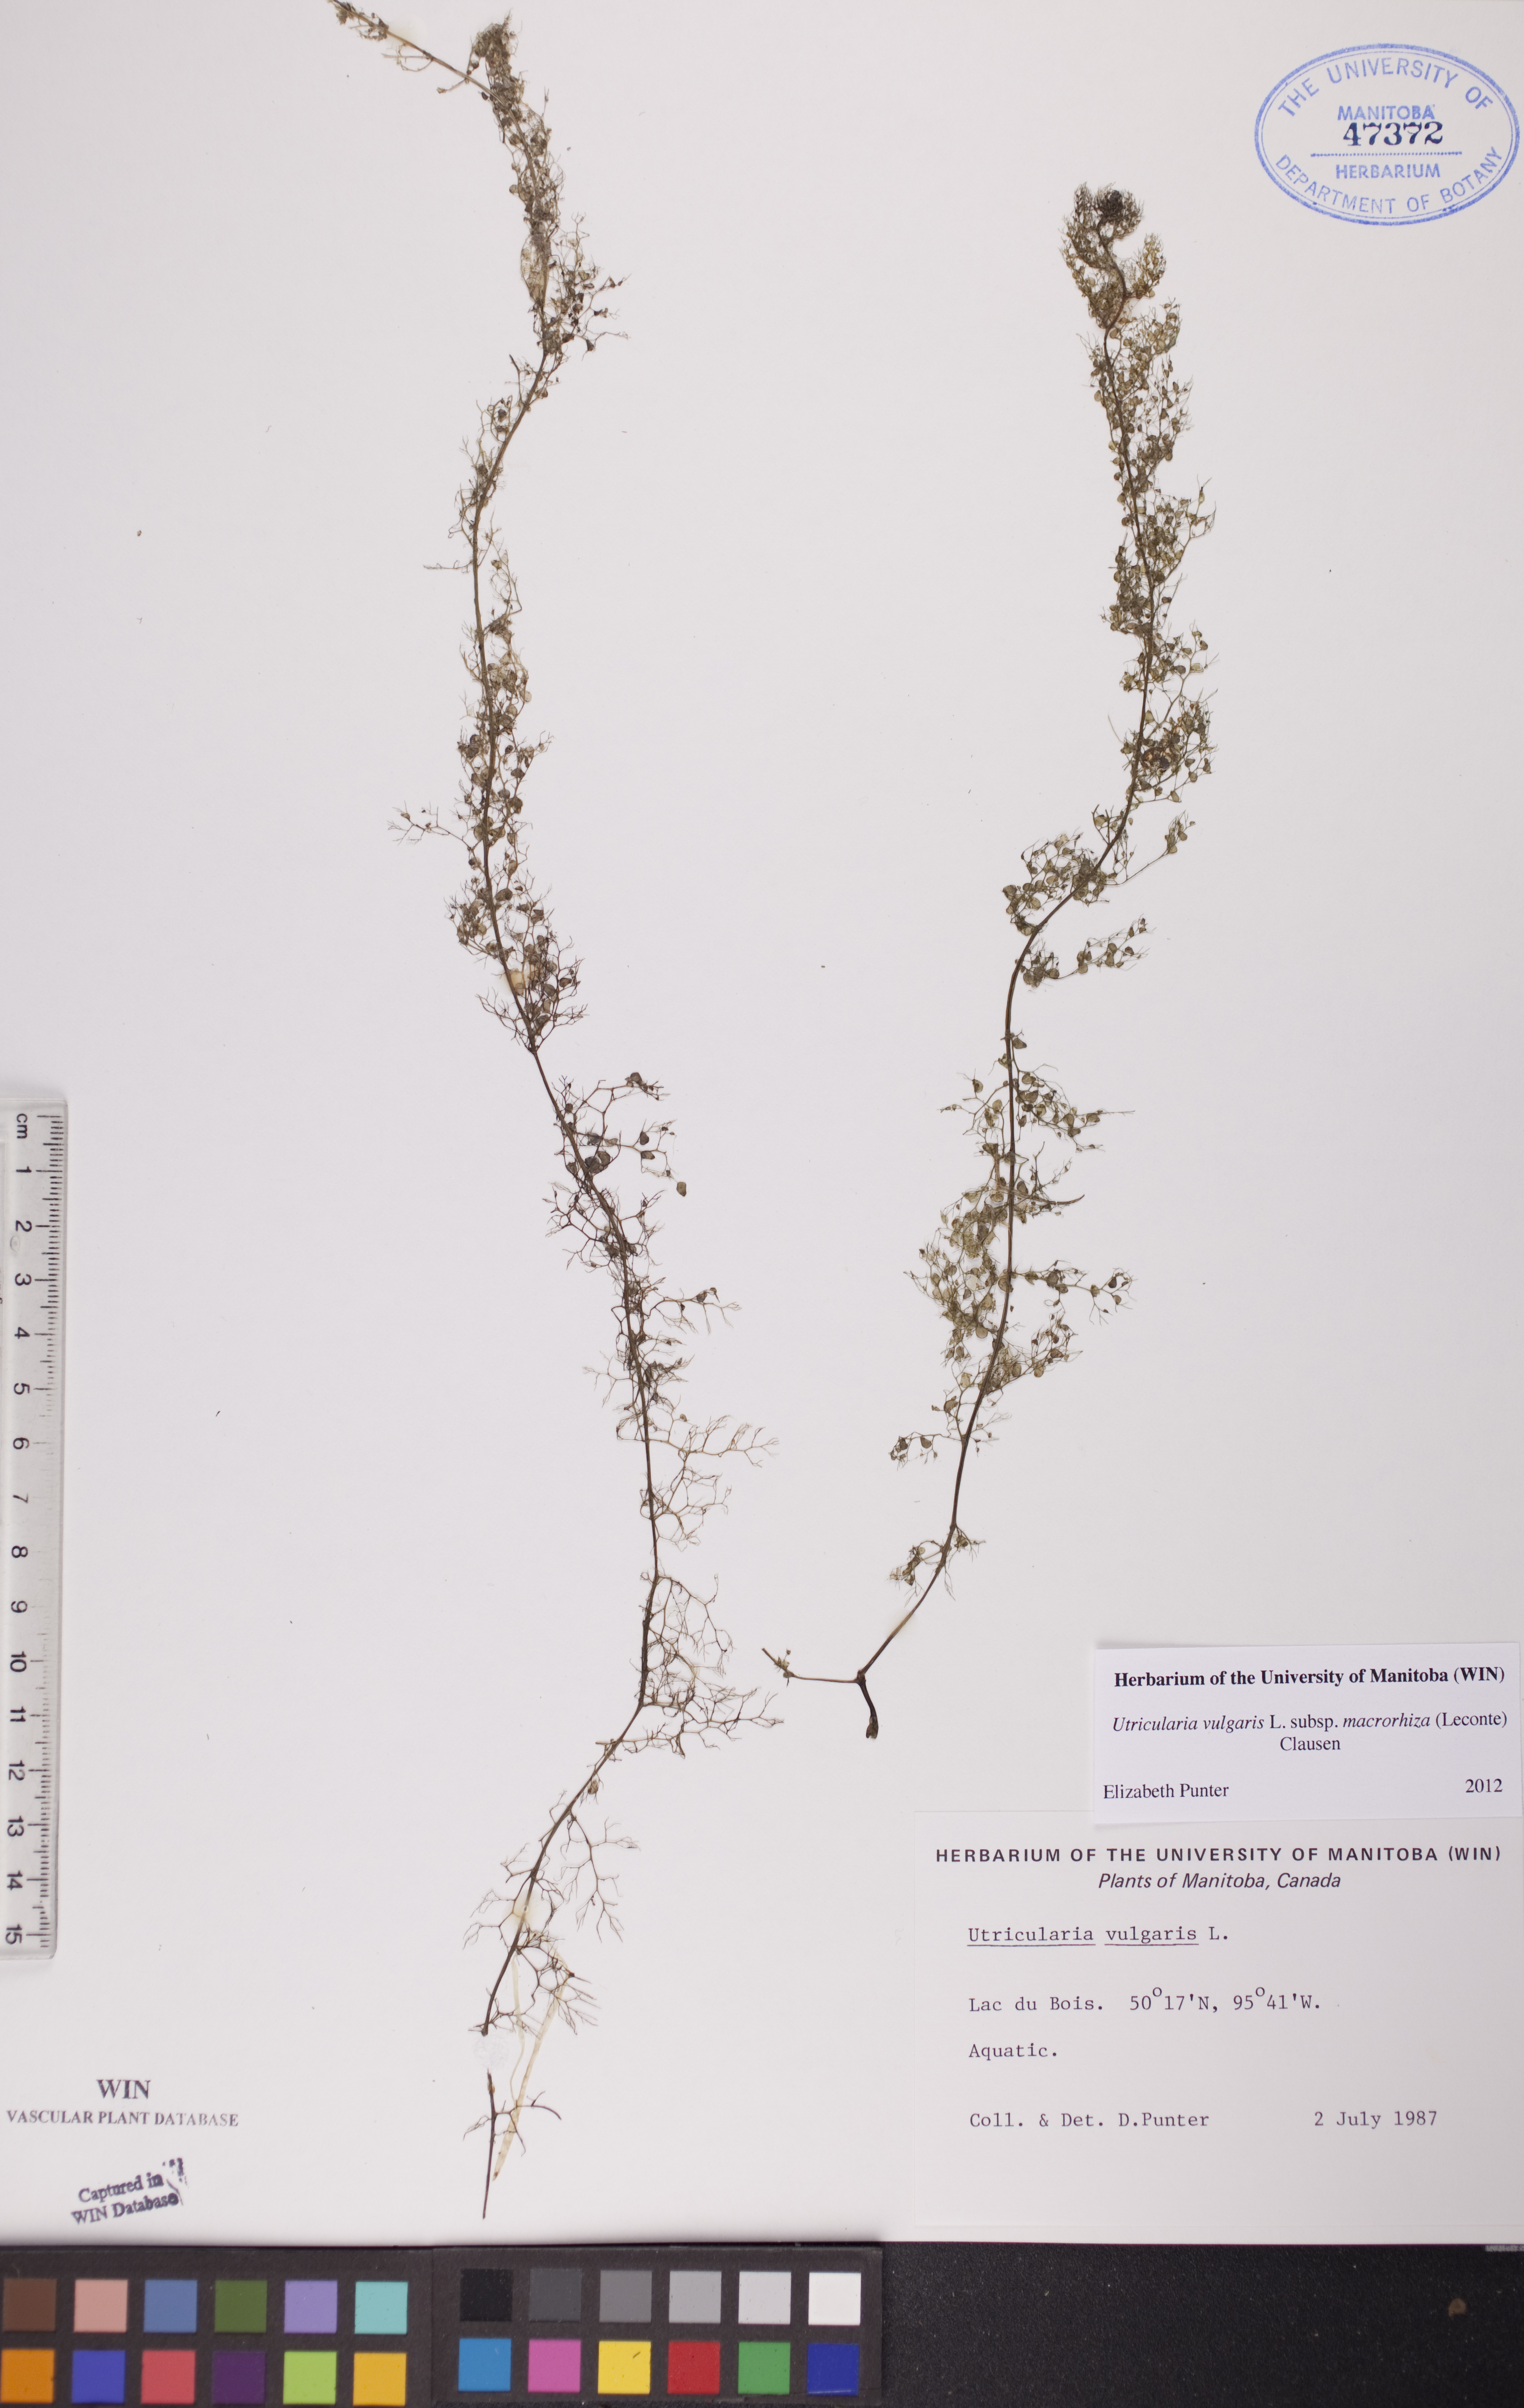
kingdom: Plantae
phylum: Tracheophyta
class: Magnoliopsida
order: Lamiales
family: Lentibulariaceae
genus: Utricularia
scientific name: Utricularia macrorhiza
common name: Common bladderwort
